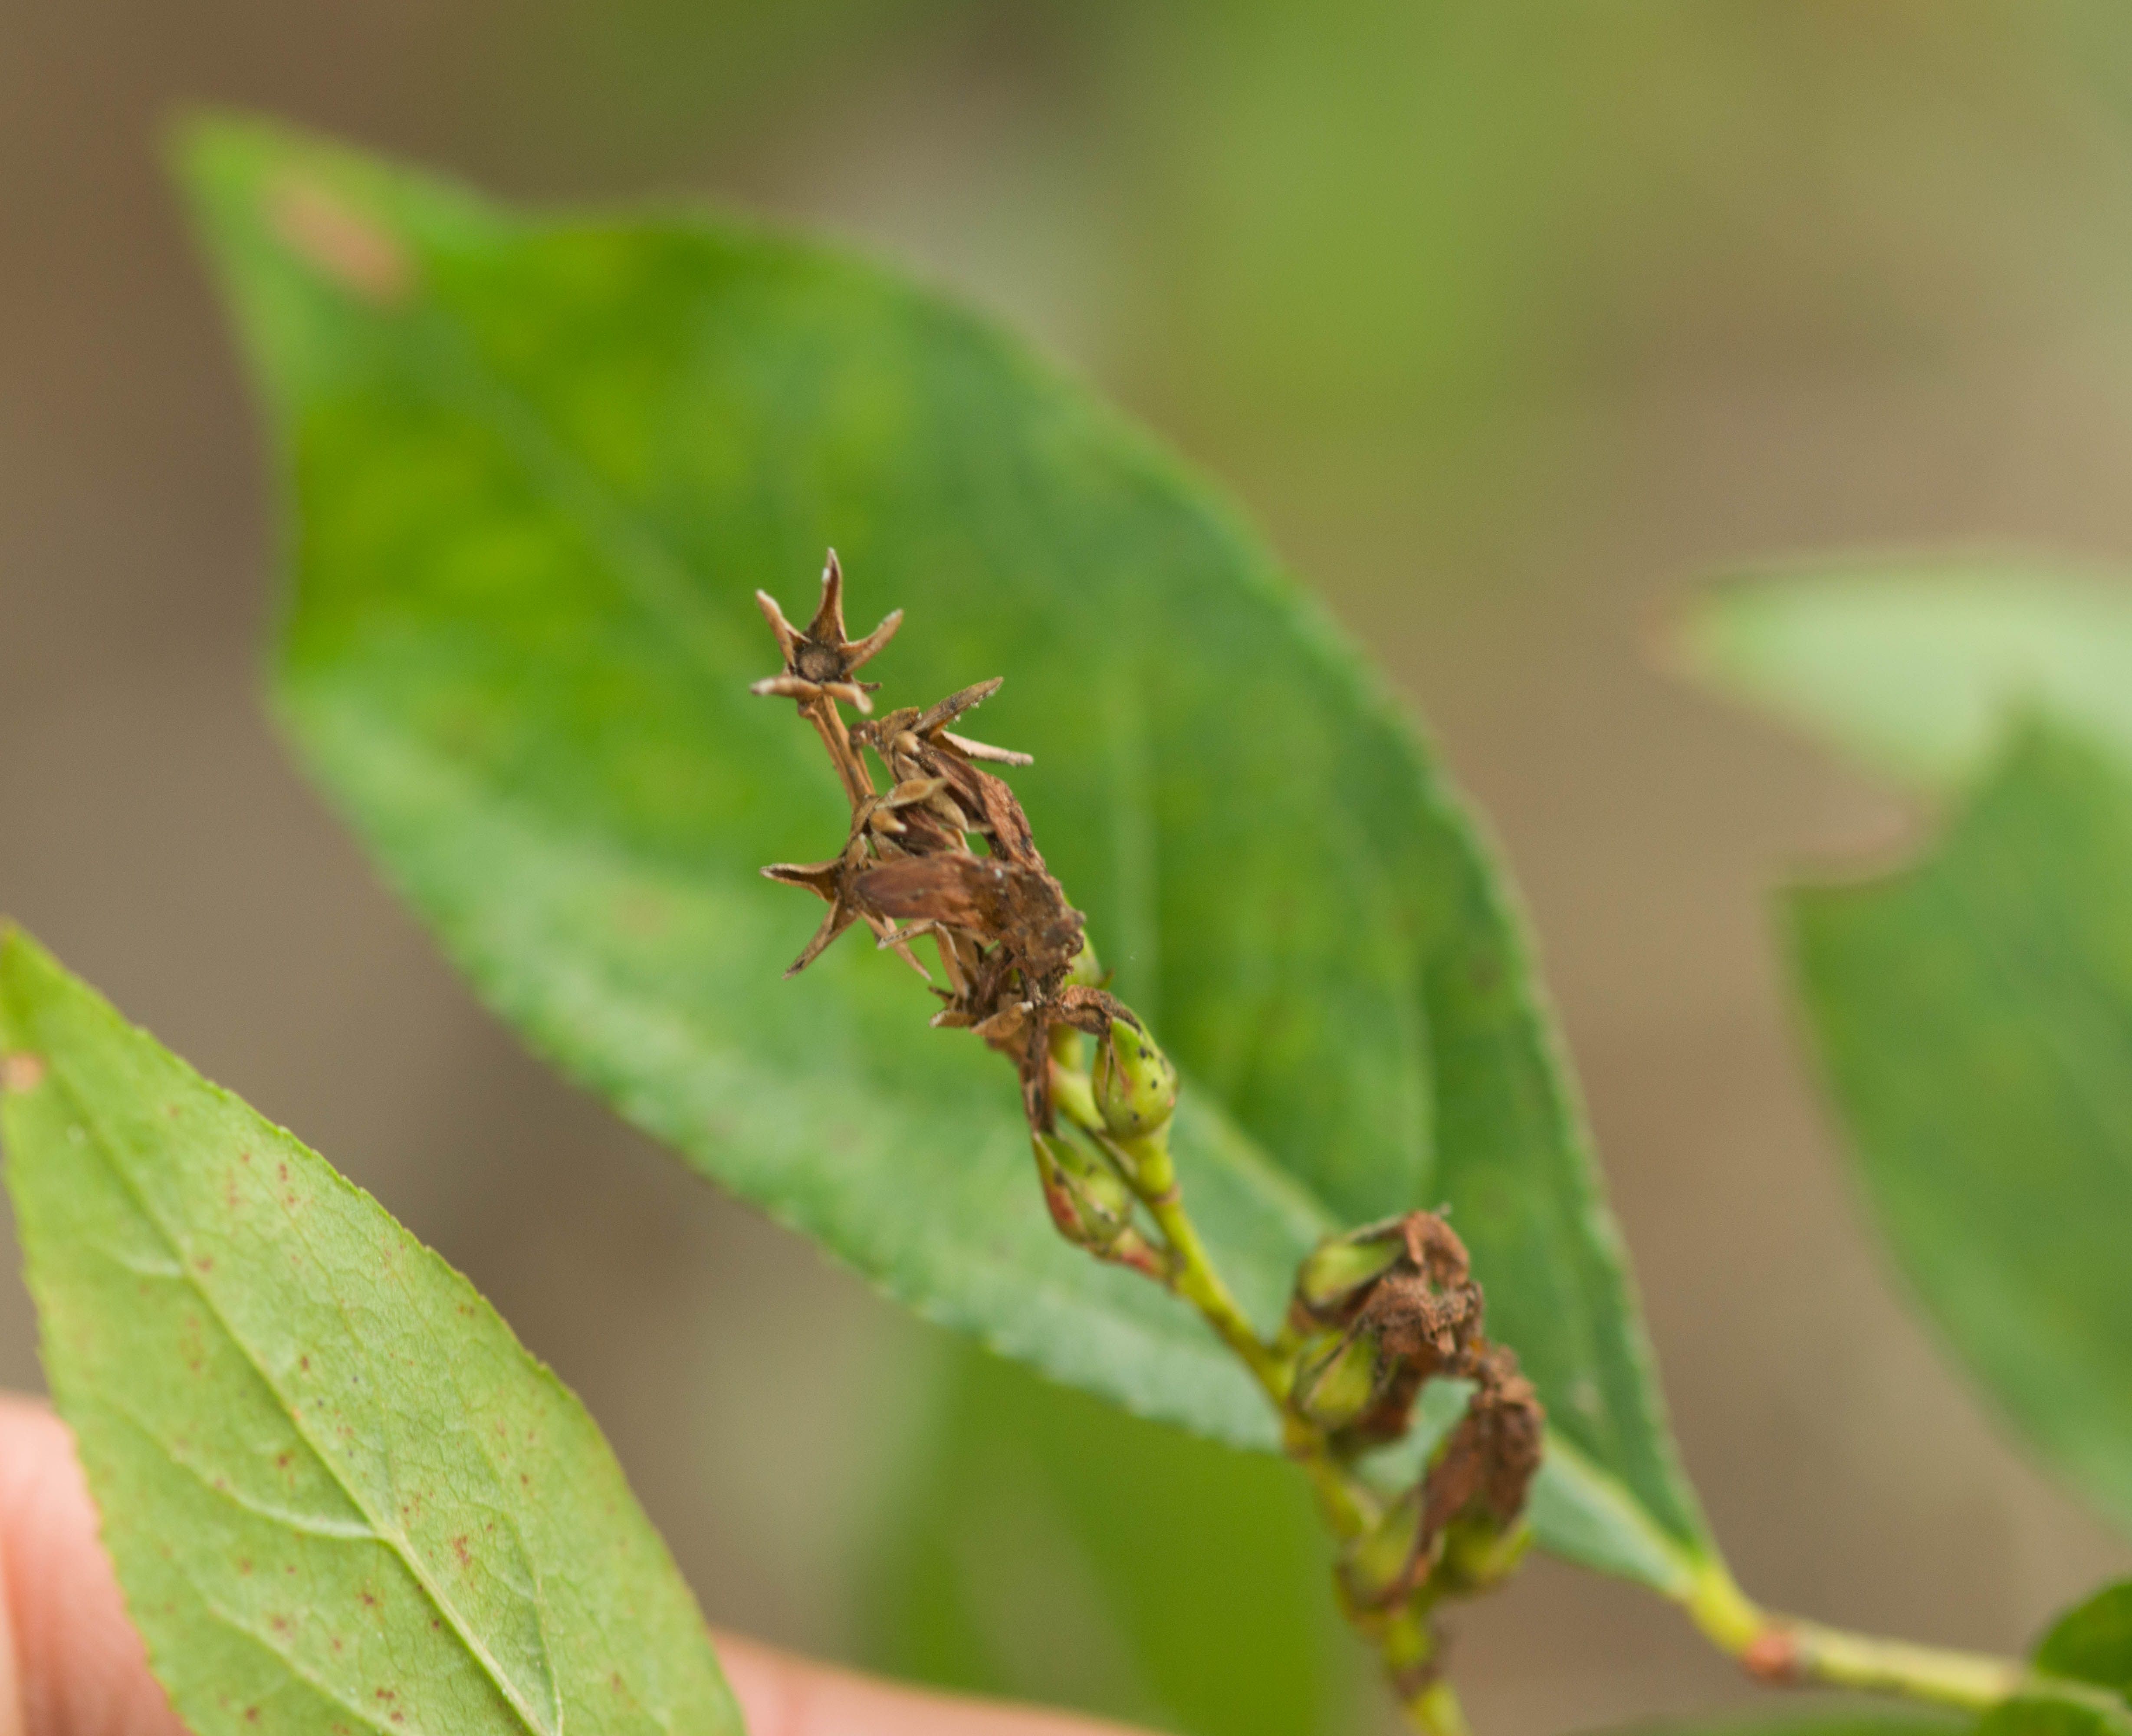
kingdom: Plantae
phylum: Tracheophyta
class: Magnoliopsida
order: Ericales
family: Ericaceae
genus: Eubotrys
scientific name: Eubotrys racemosa
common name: Fetterbush
